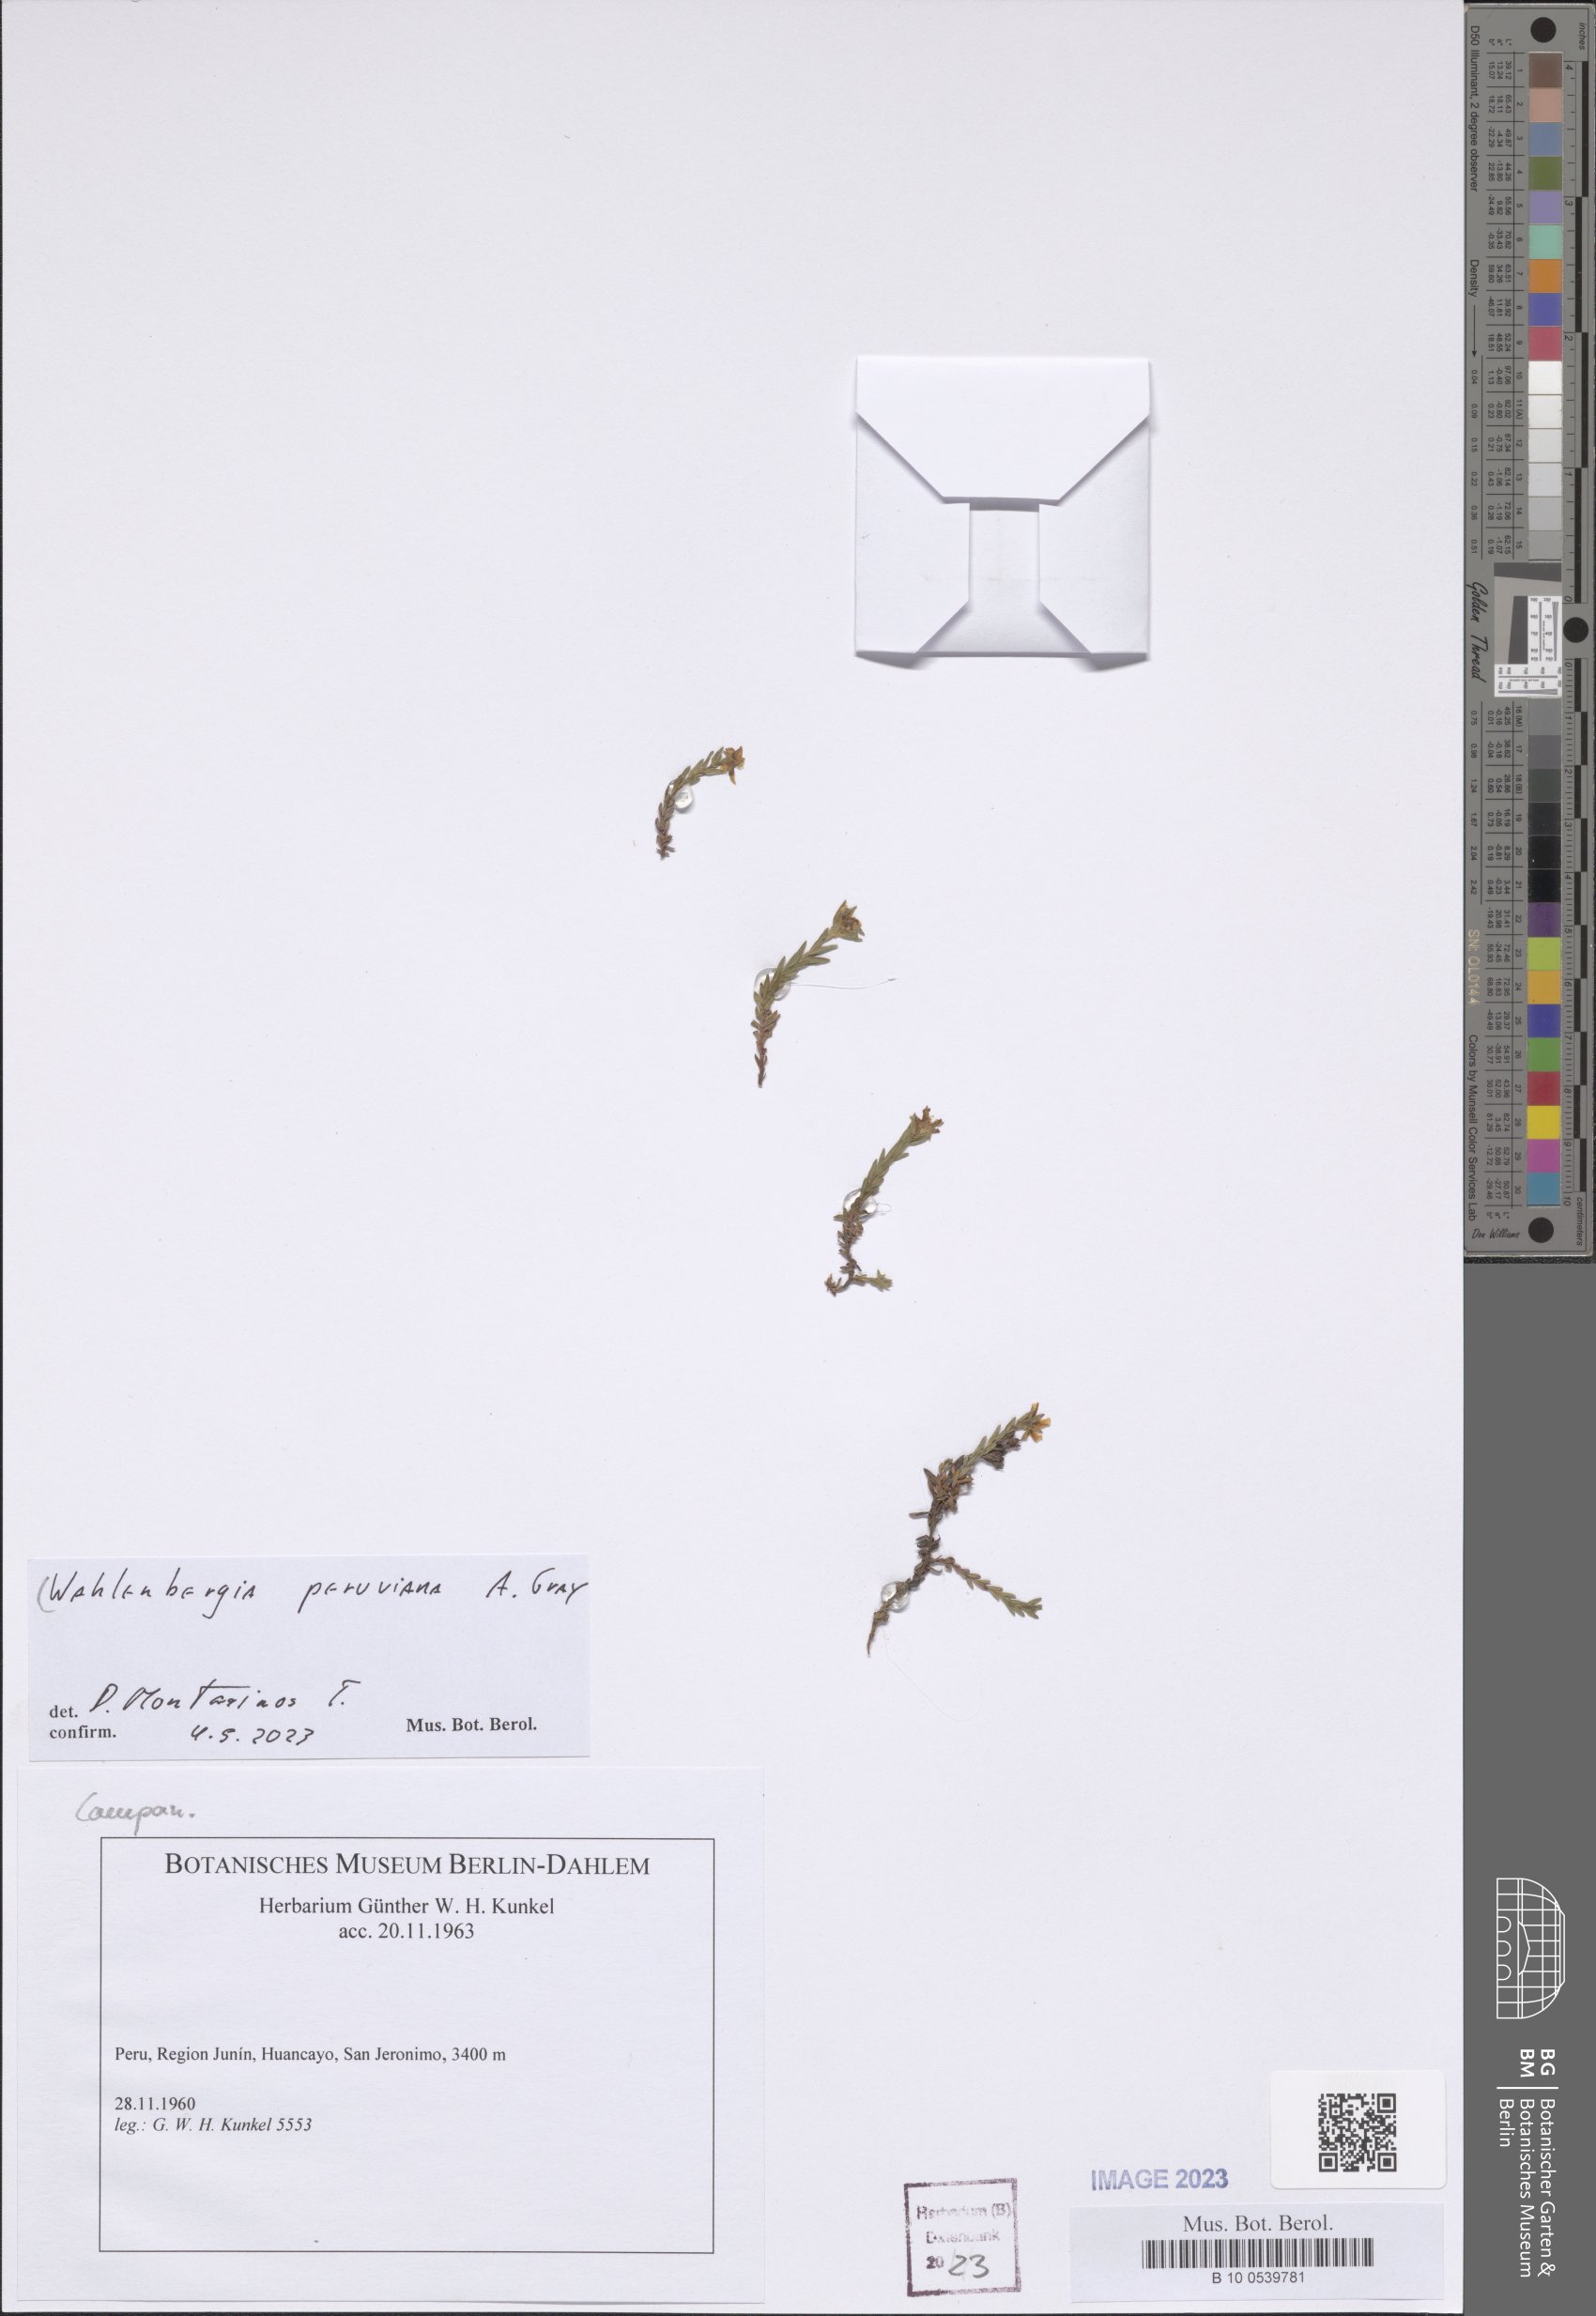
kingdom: Plantae
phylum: Tracheophyta
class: Magnoliopsida
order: Asterales
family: Campanulaceae
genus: Wahlenbergia
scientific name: Wahlenbergia peruviana
